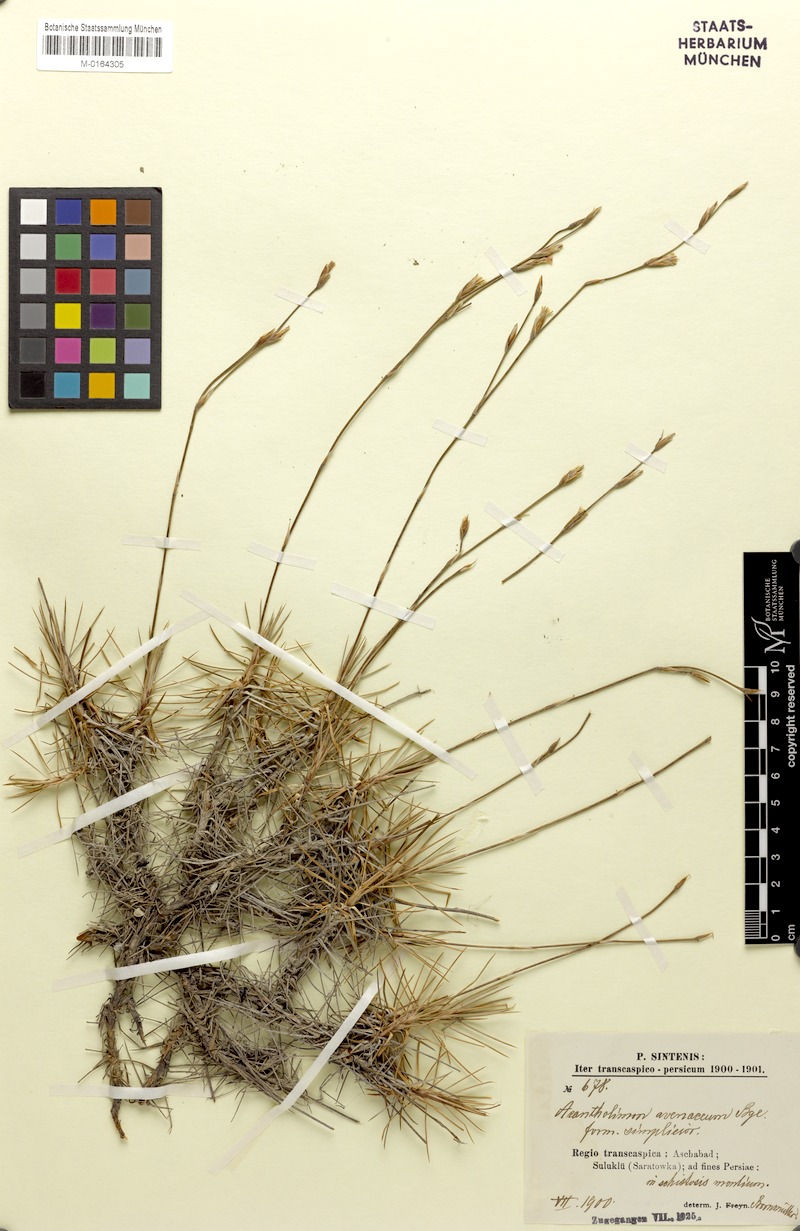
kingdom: Plantae
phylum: Tracheophyta
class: Magnoliopsida
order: Caryophyllales
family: Plumbaginaceae
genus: Acantholimon
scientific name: Acantholimon avenaceum
